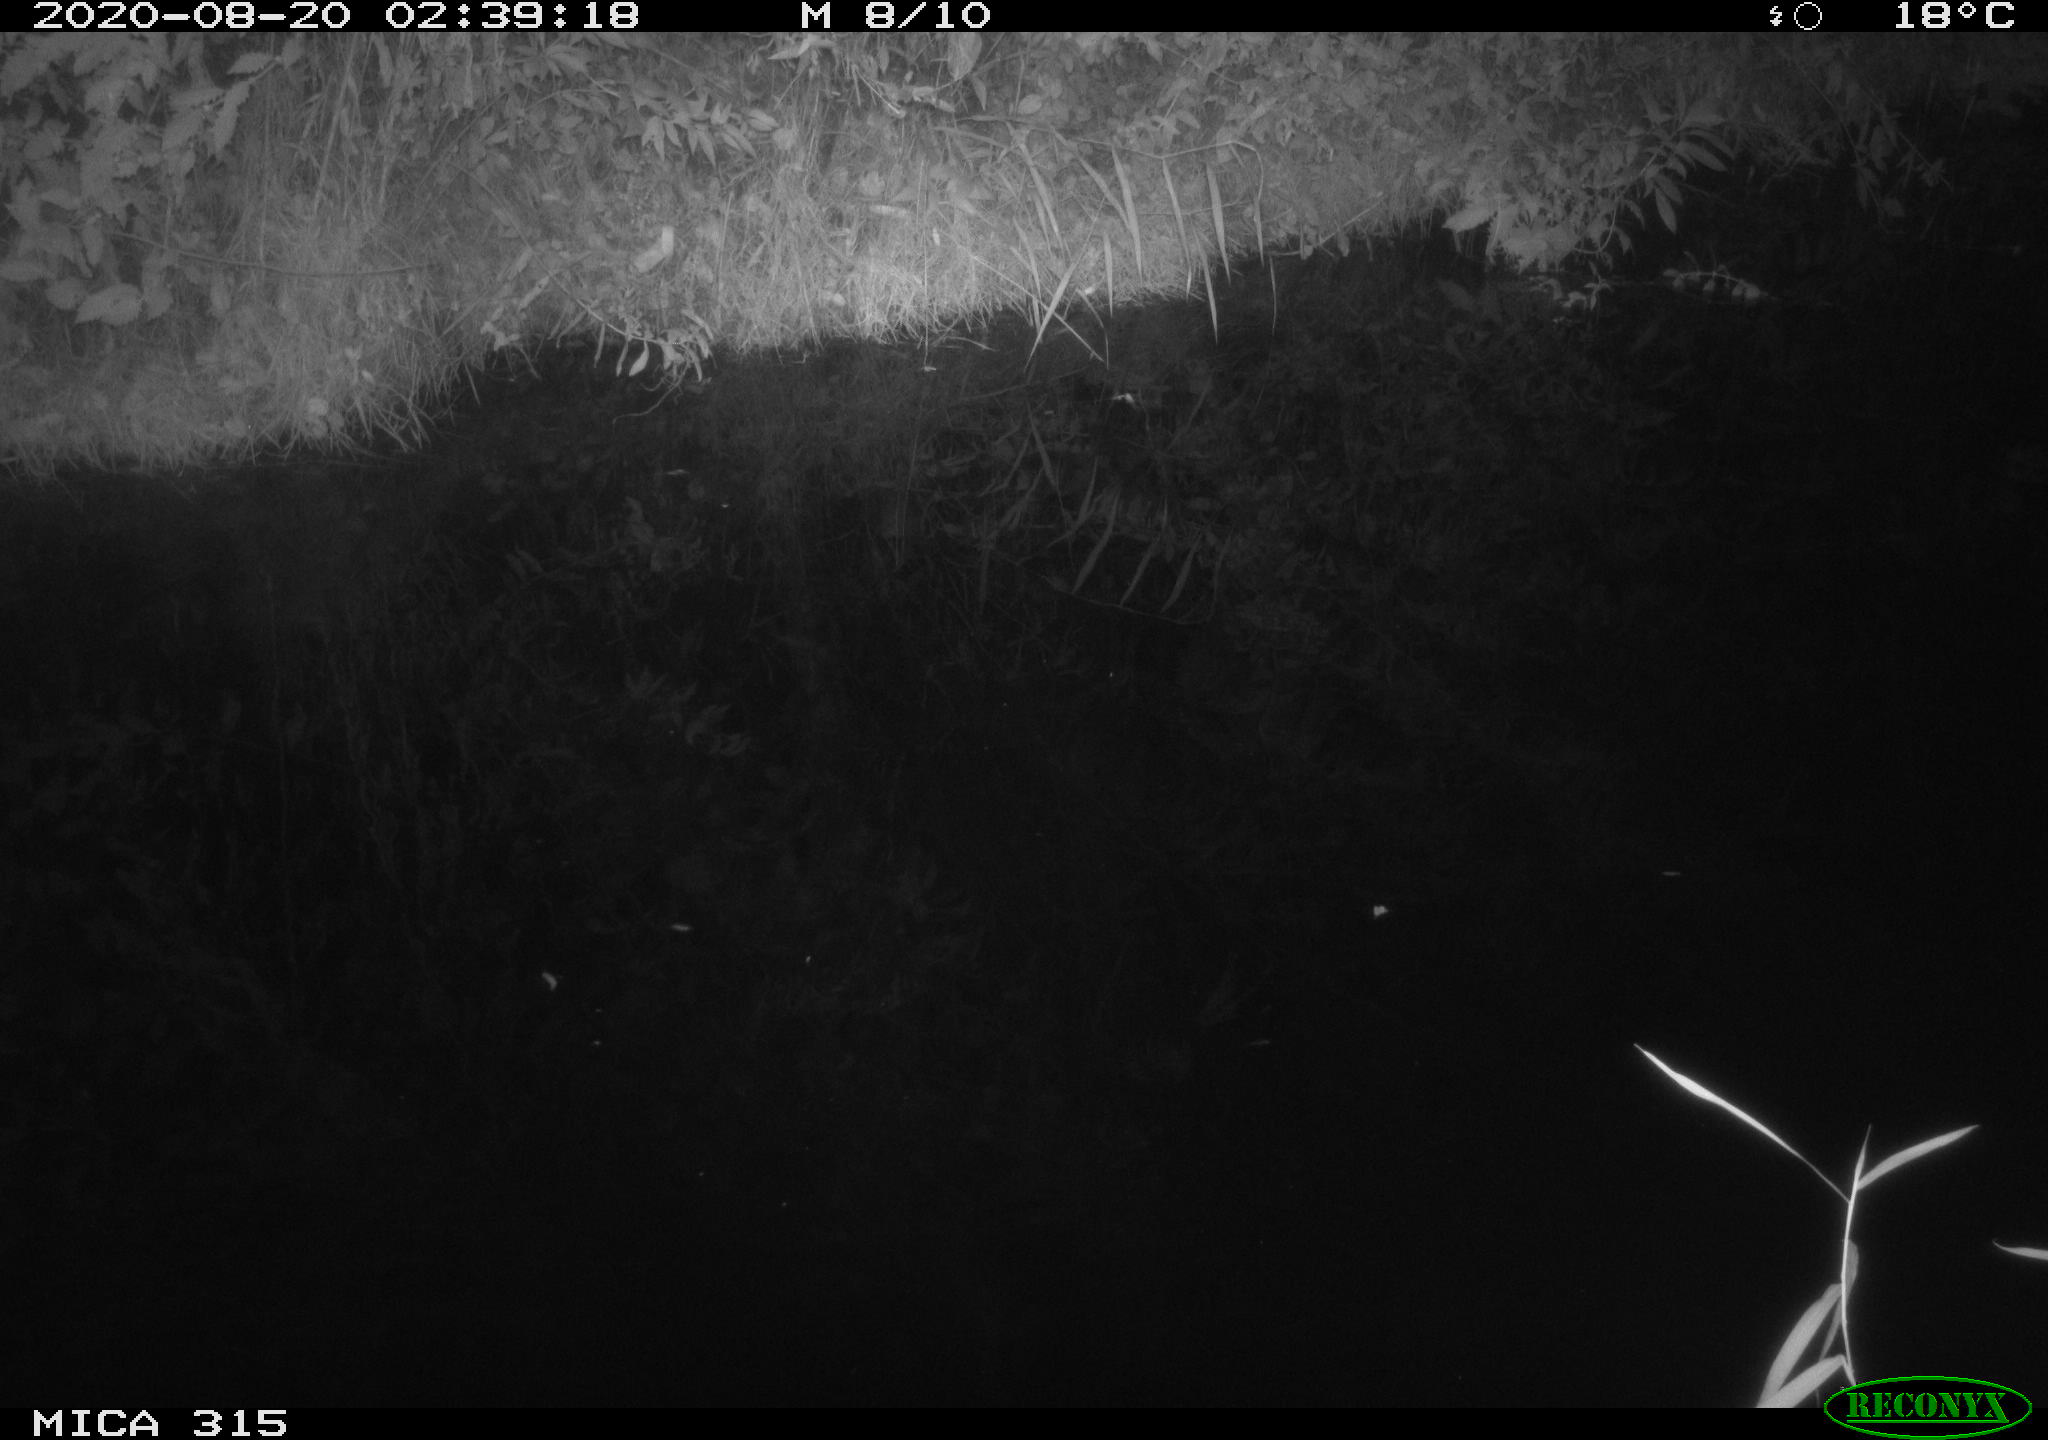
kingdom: Animalia
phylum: Chordata
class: Aves
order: Anseriformes
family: Anatidae
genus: Anas
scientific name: Anas platyrhynchos
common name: Mallard
